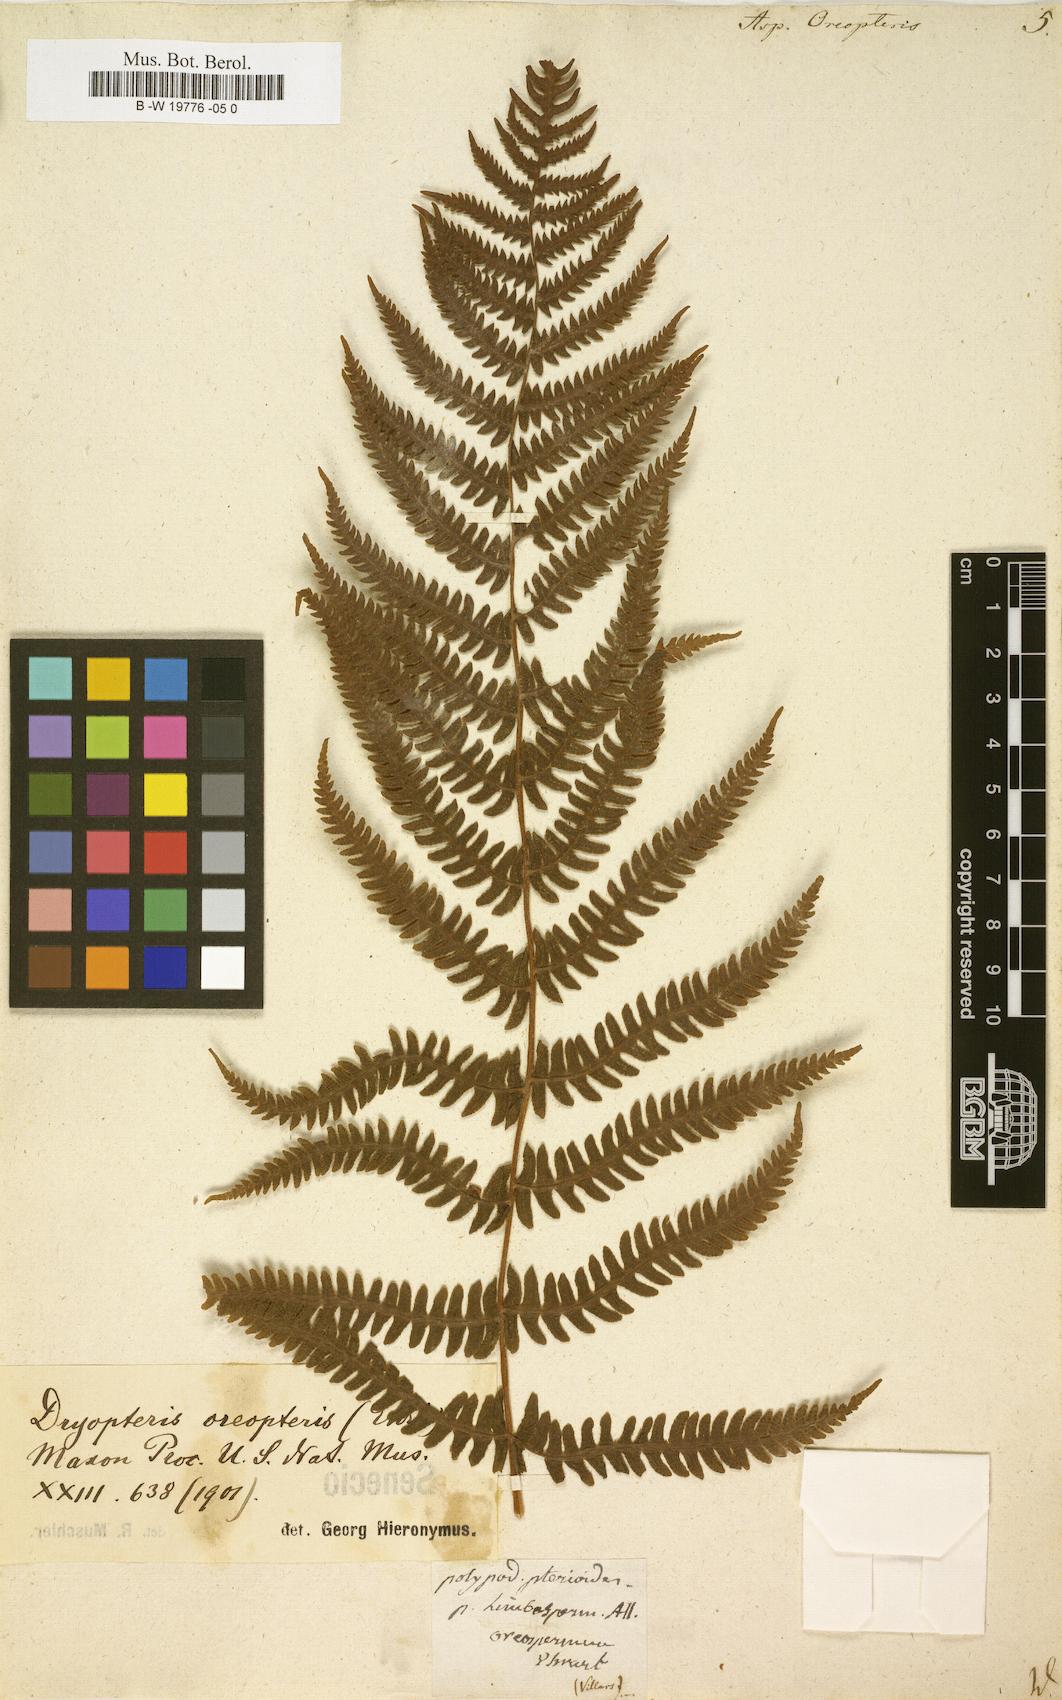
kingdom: Plantae
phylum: Tracheophyta
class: Polypodiopsida
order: Polypodiales
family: Thelypteridaceae
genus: Oreopteris
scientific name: Oreopteris limbosperma
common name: Lemon-scented fern
